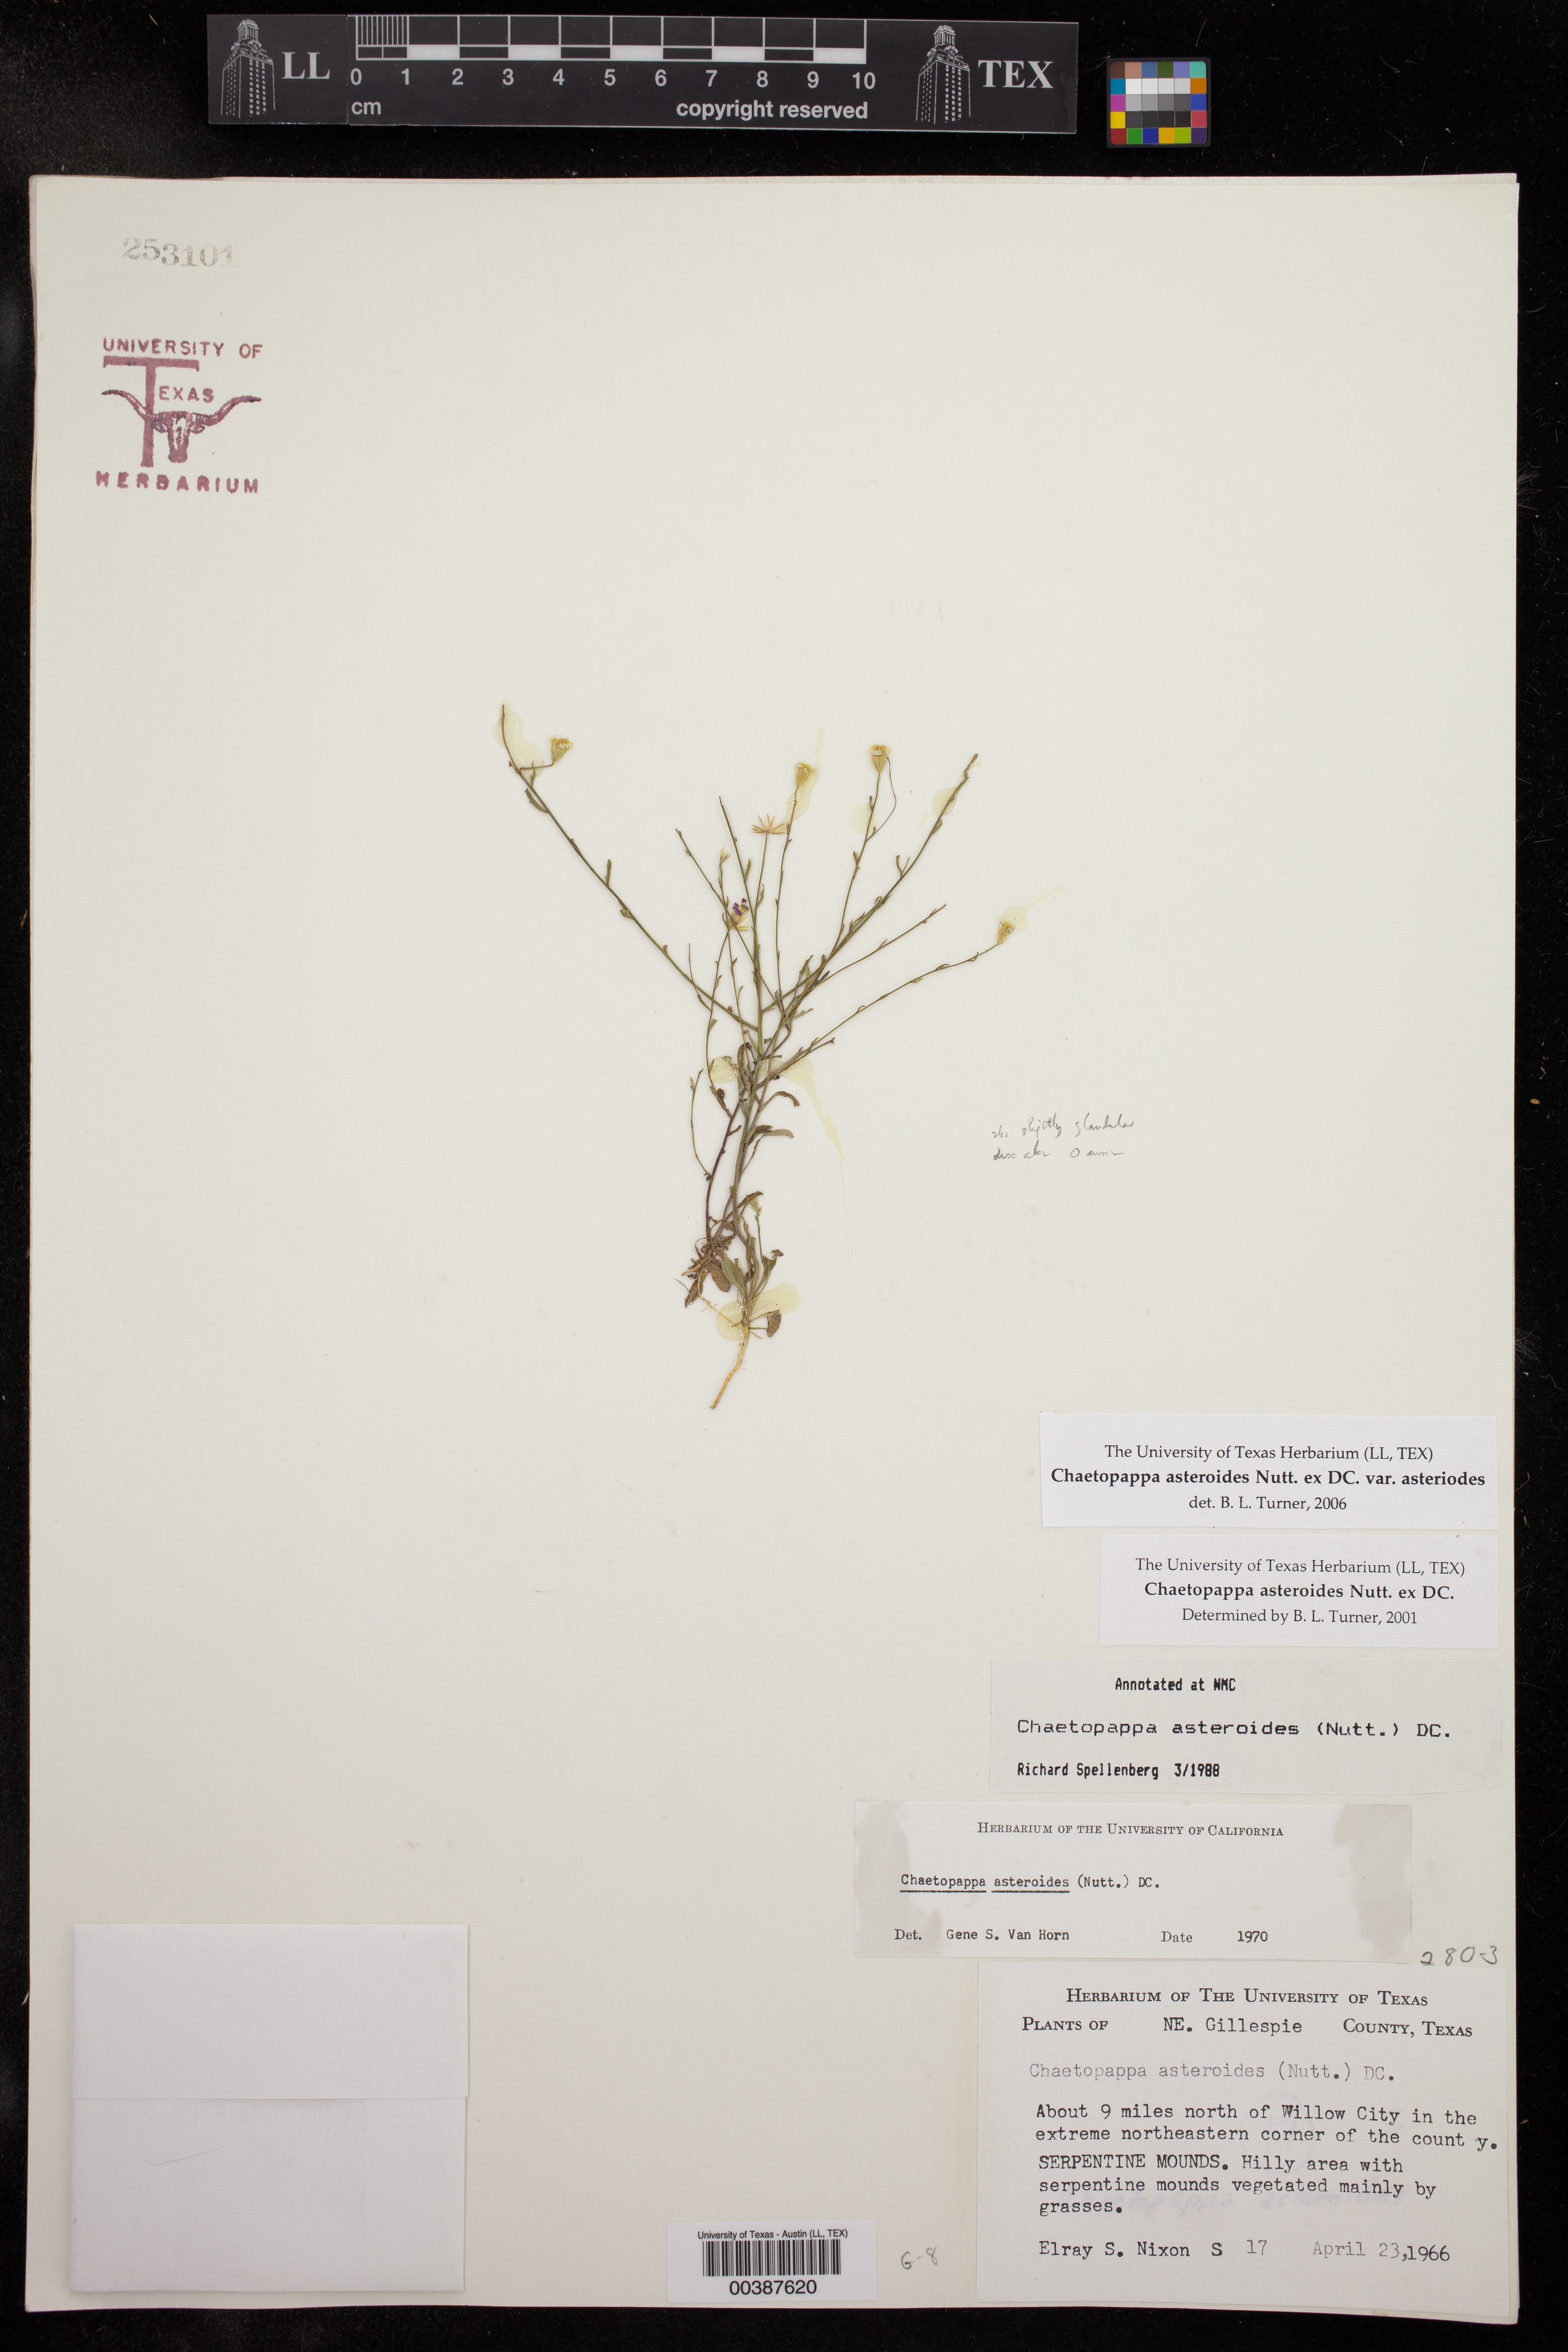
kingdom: Plantae
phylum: Tracheophyta
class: Magnoliopsida
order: Asterales
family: Asteraceae
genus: Chaetopappa
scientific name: Chaetopappa asteroides
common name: Tiny lazy daisy
